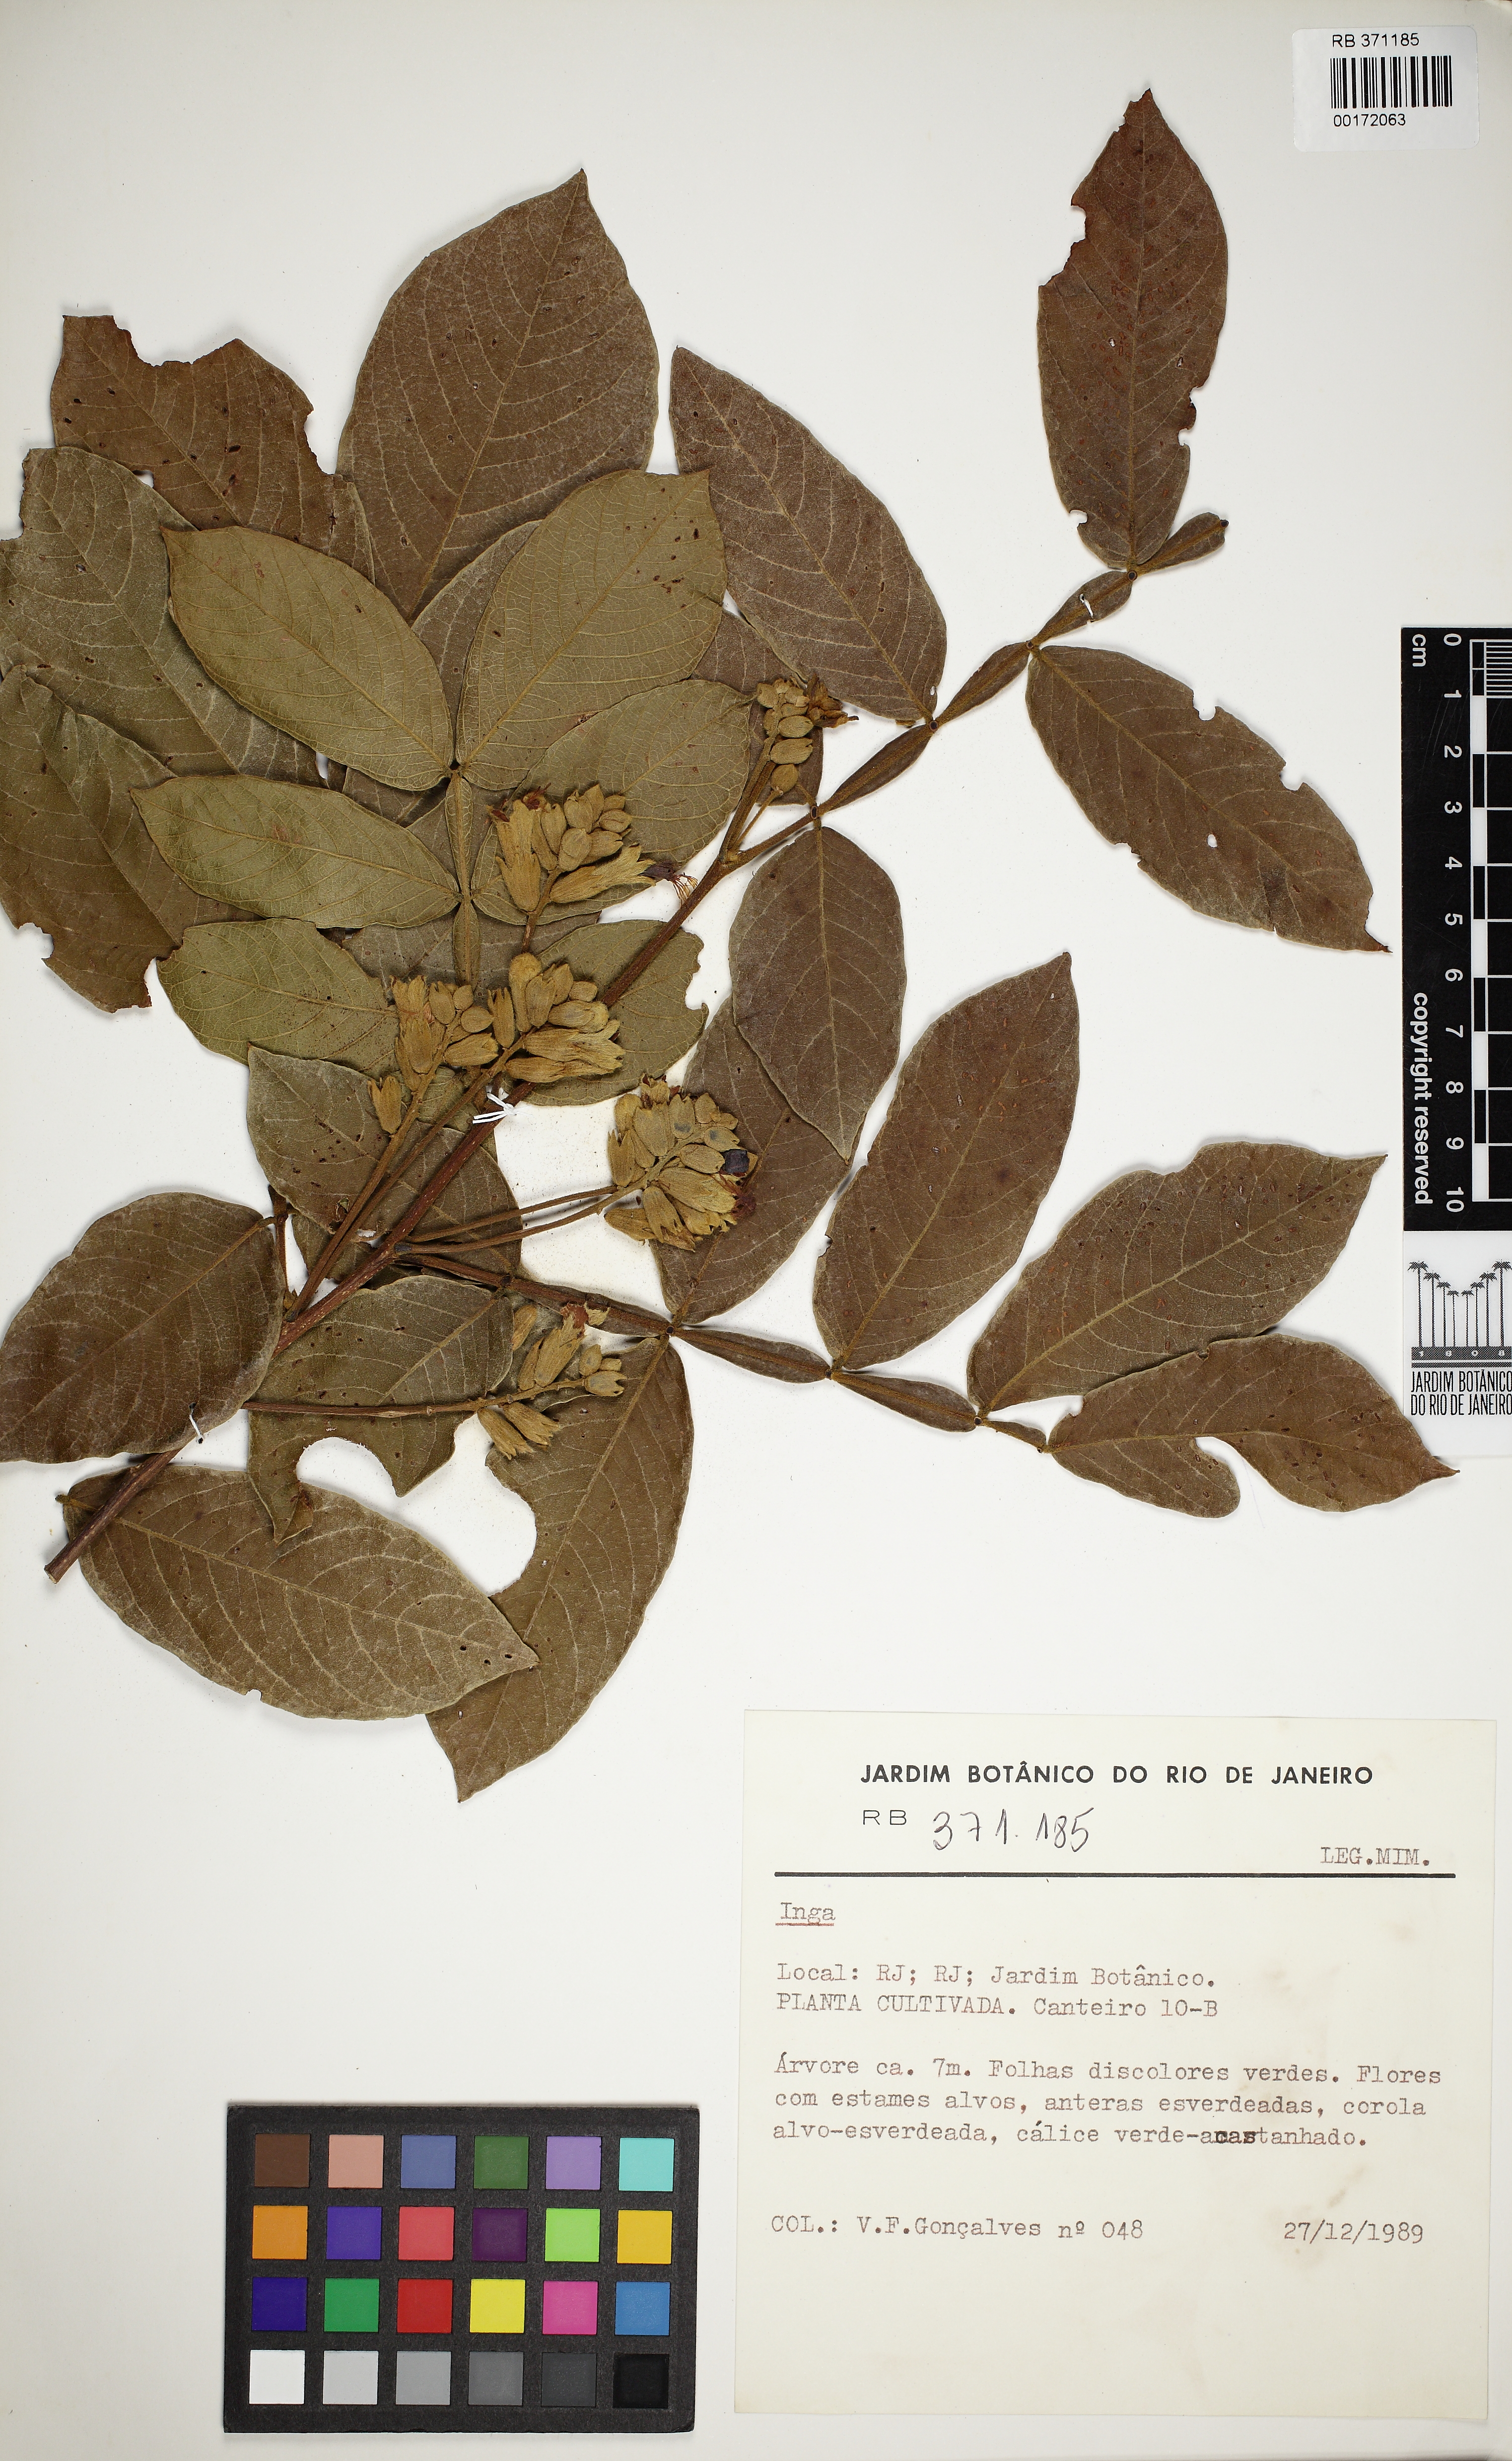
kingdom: Plantae
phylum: Tracheophyta
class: Magnoliopsida
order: Fabales
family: Fabaceae
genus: Inga
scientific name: Inga
